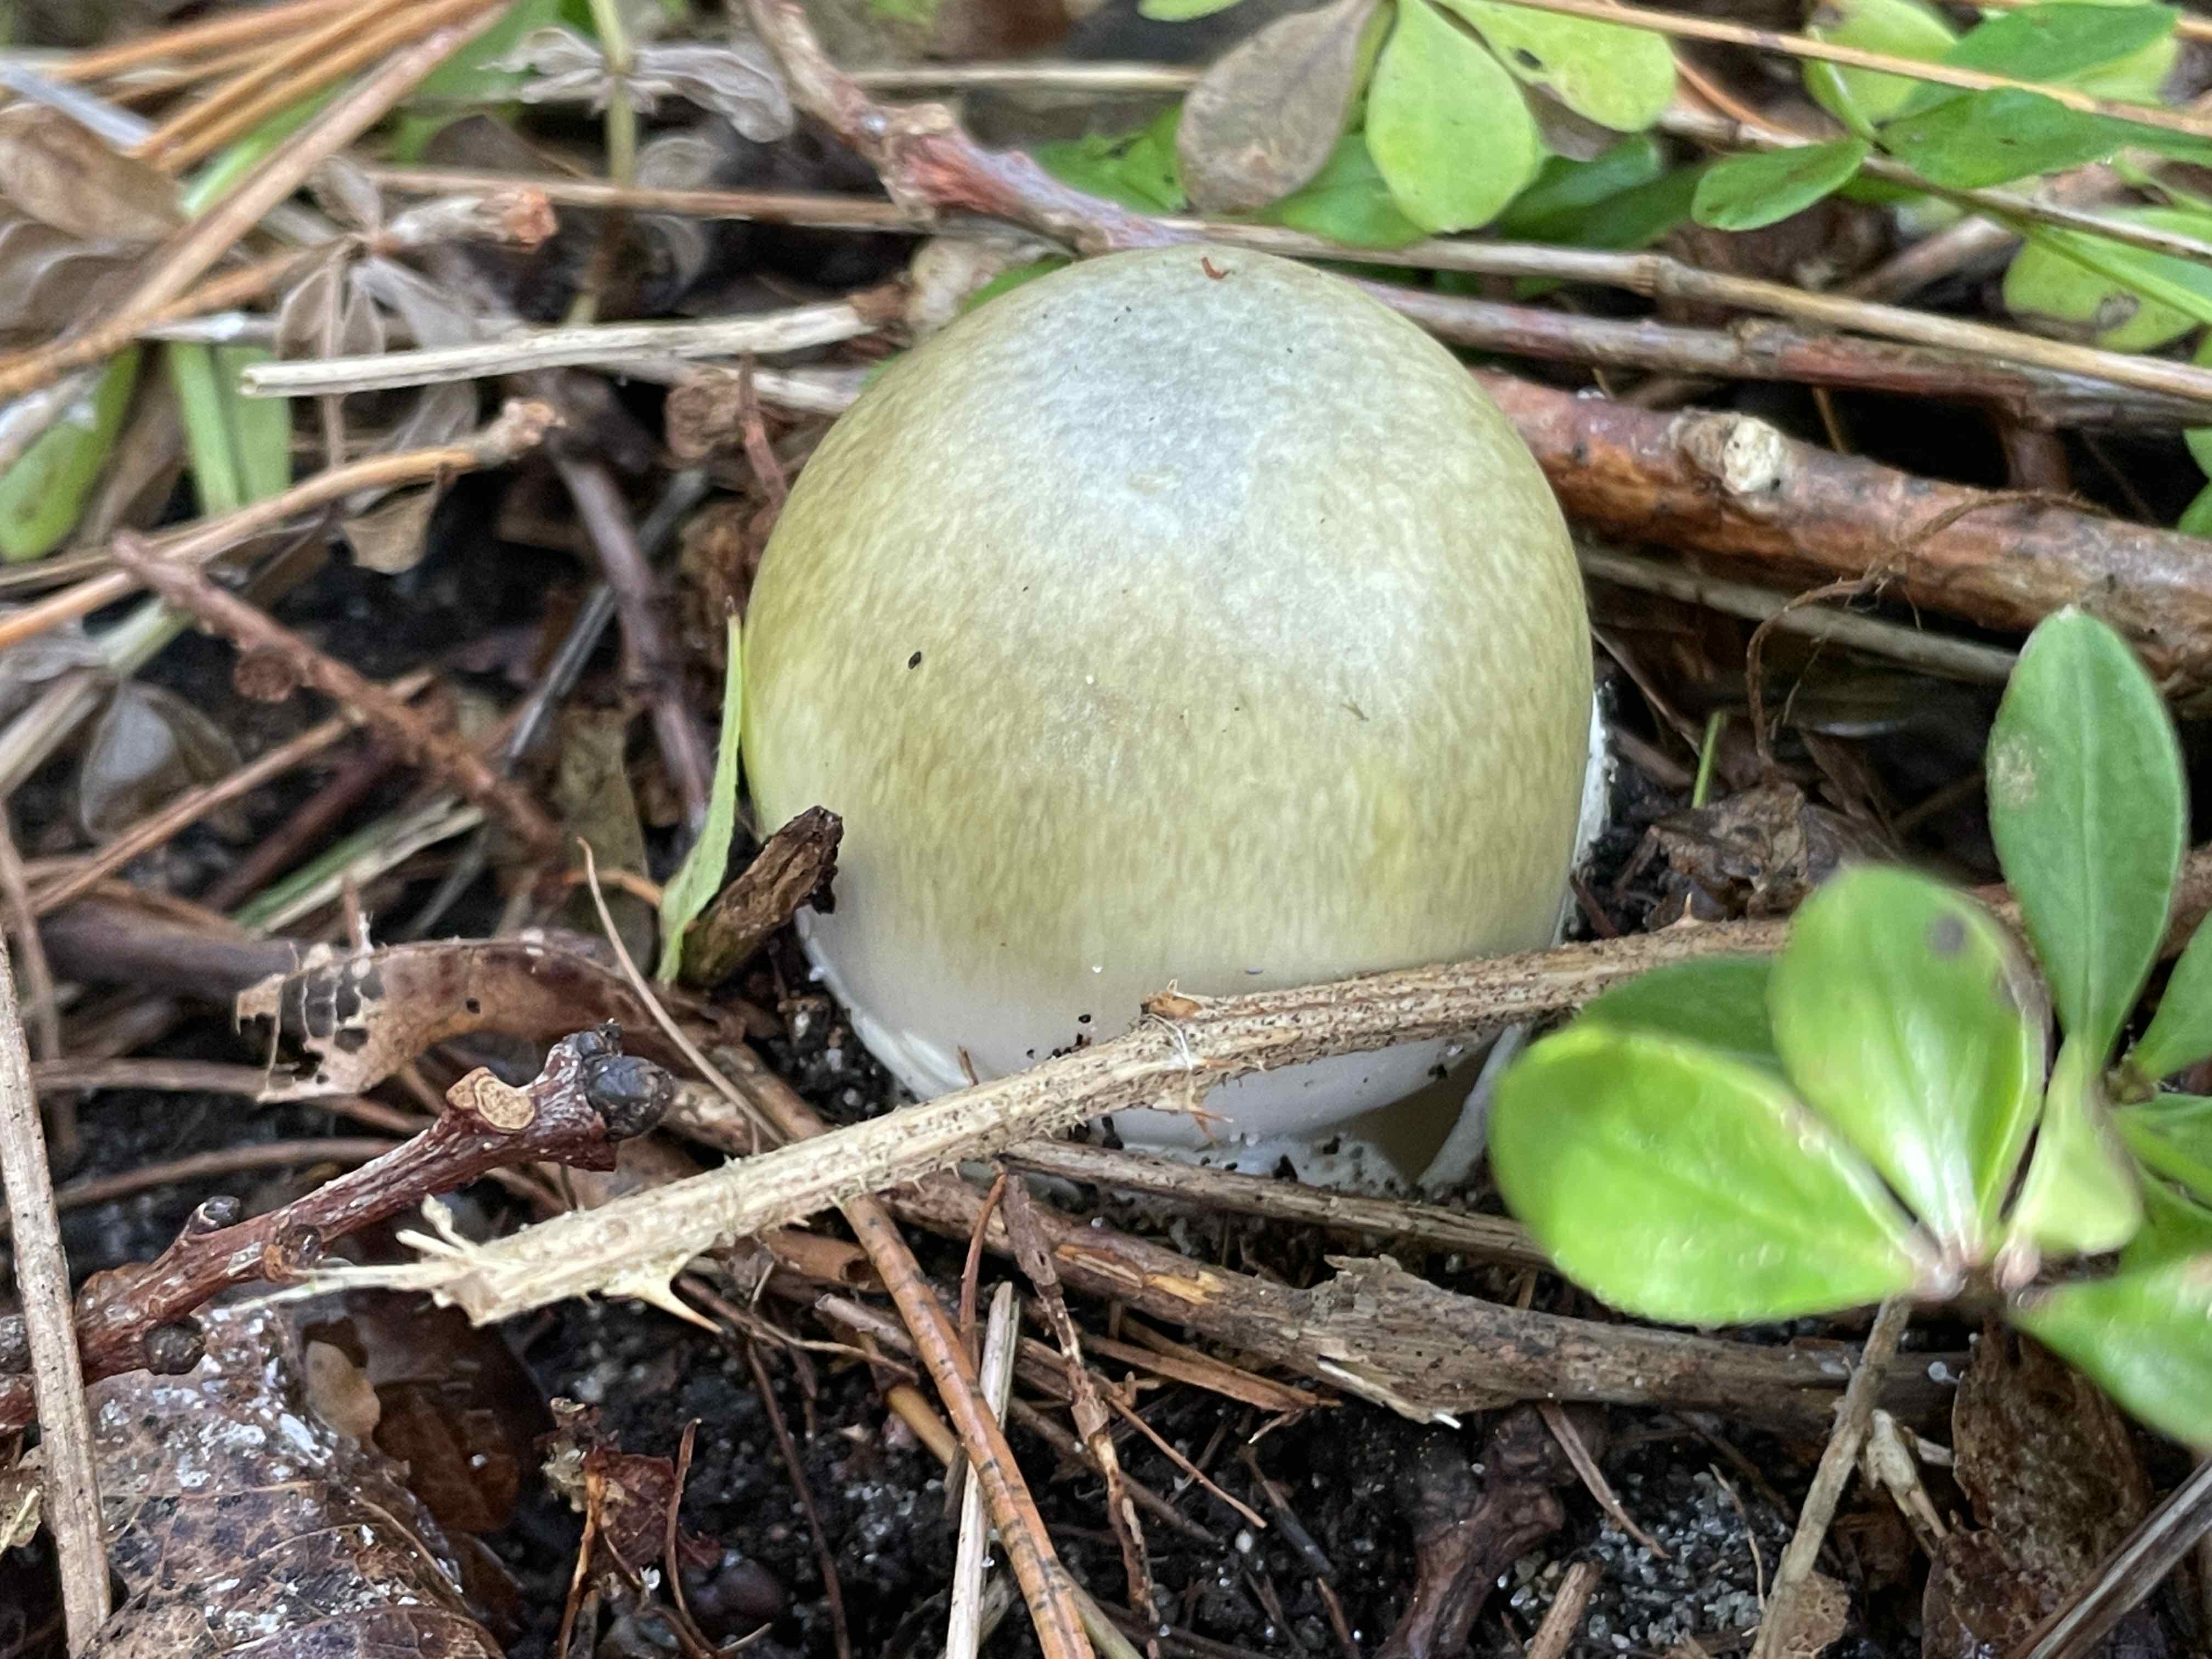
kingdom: Fungi
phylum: Basidiomycota
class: Agaricomycetes
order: Agaricales
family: Amanitaceae
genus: Amanita
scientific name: Amanita phalloides
